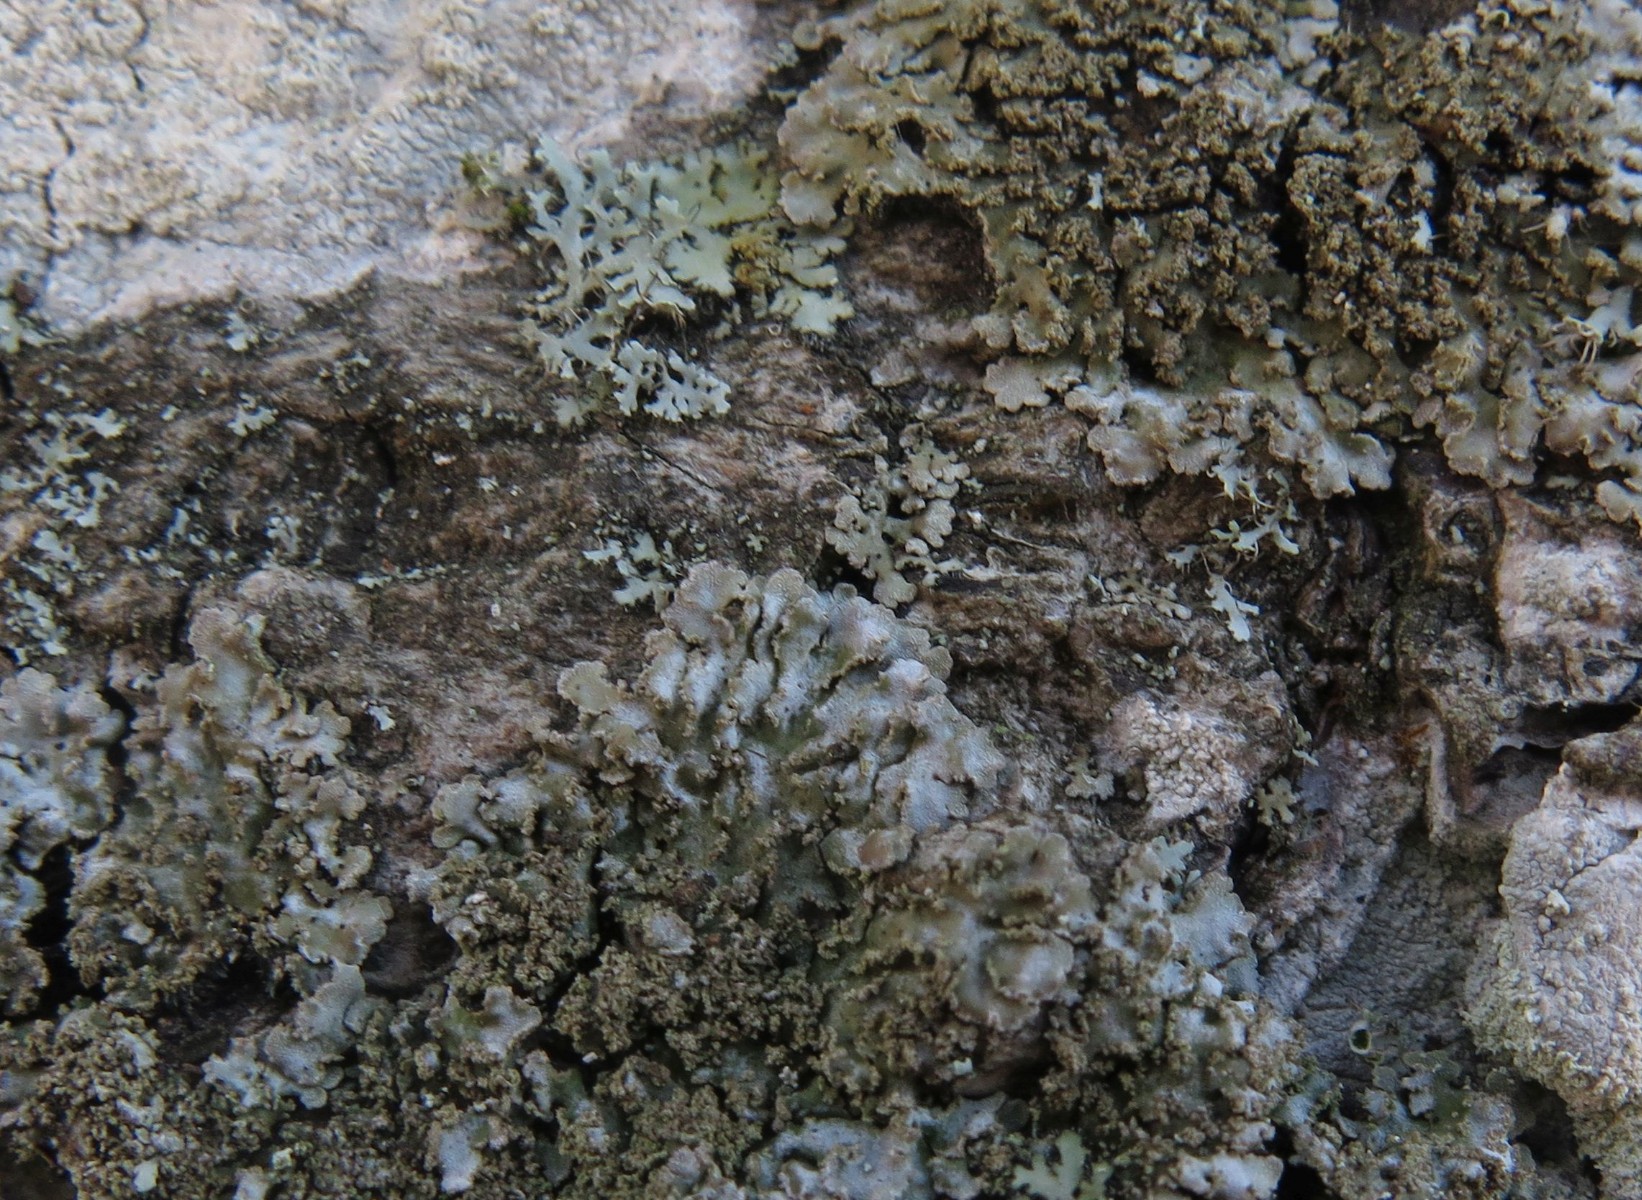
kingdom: Fungi
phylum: Ascomycota
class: Lecanoromycetes
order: Caliciales
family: Physciaceae
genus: Physconia
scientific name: Physconia enteroxantha
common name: grynet dugrosetlav
